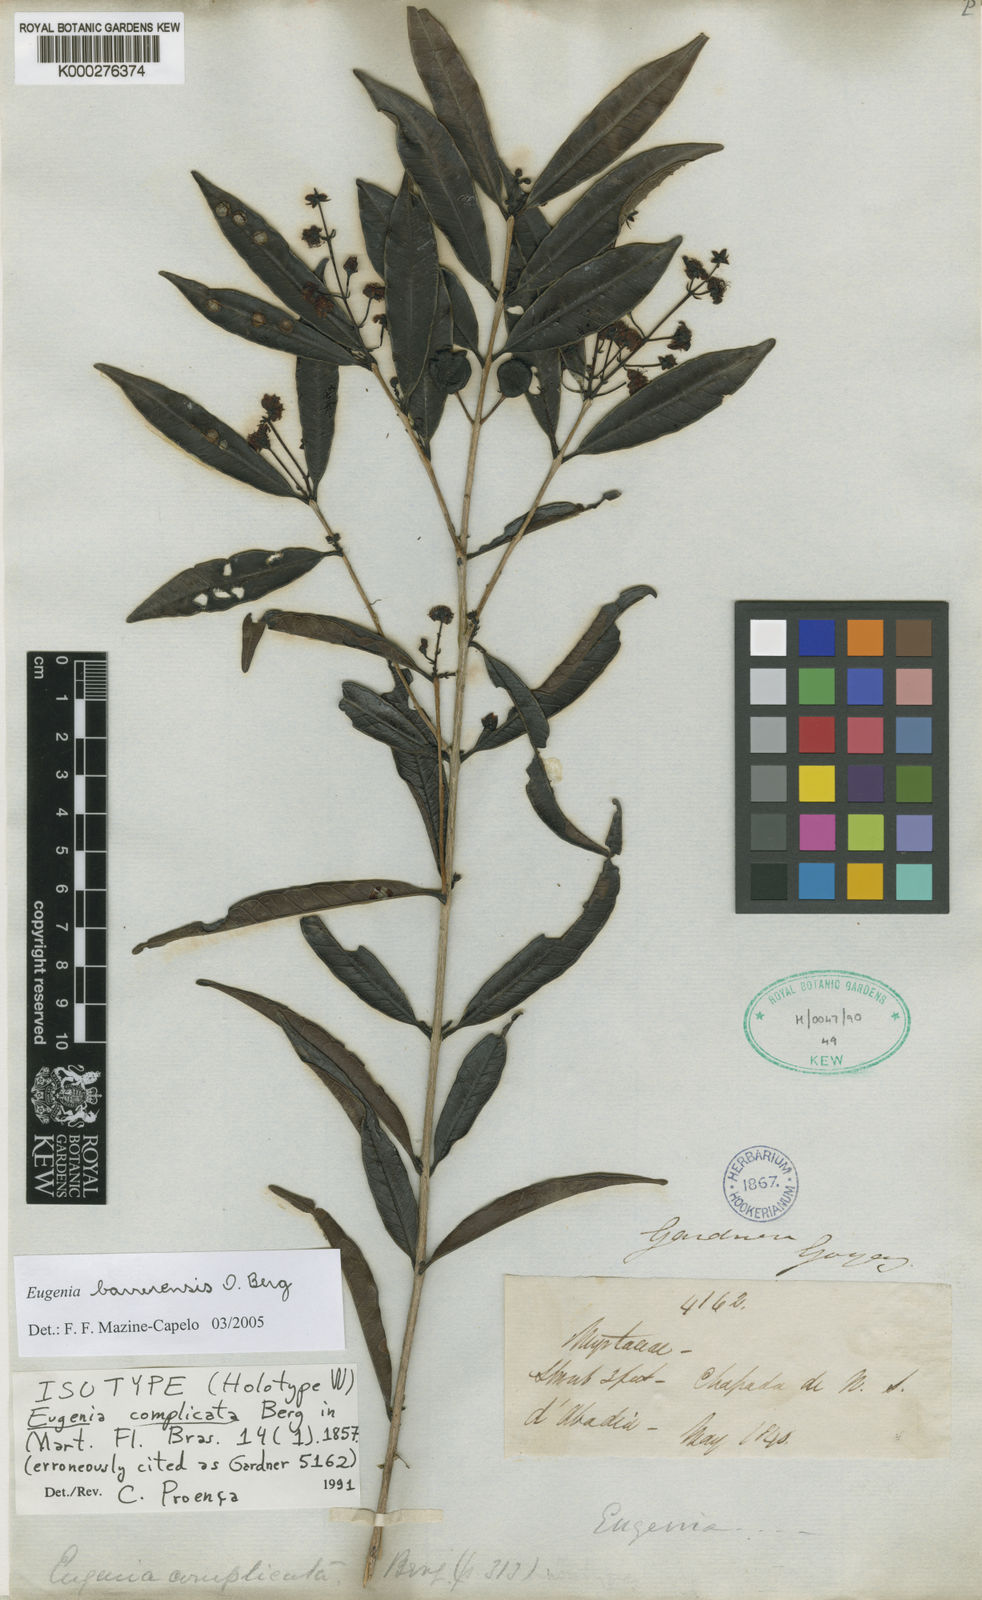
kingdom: Plantae
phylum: Tracheophyta
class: Magnoliopsida
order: Myrtales
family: Myrtaceae
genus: Eugenia
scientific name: Eugenia complicata
